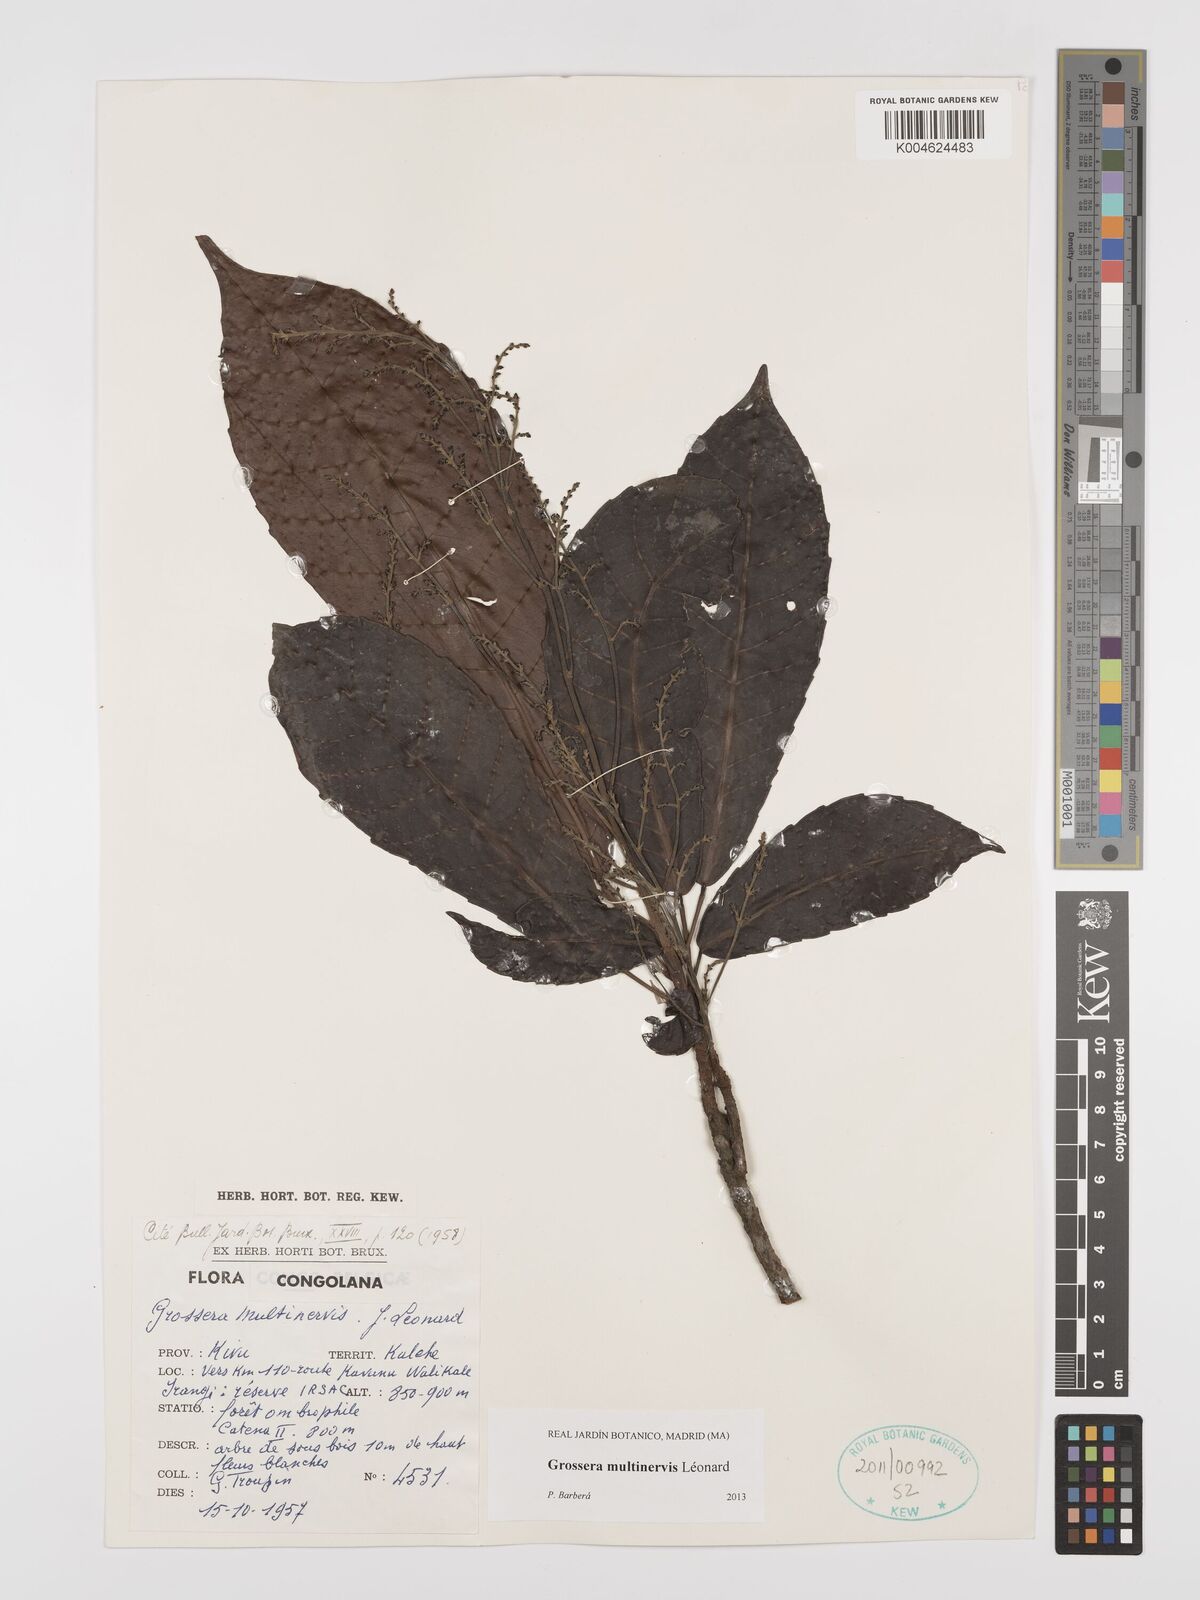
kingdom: Plantae
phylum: Tracheophyta
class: Magnoliopsida
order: Malpighiales
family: Euphorbiaceae
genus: Grossera
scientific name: Grossera multinervis
